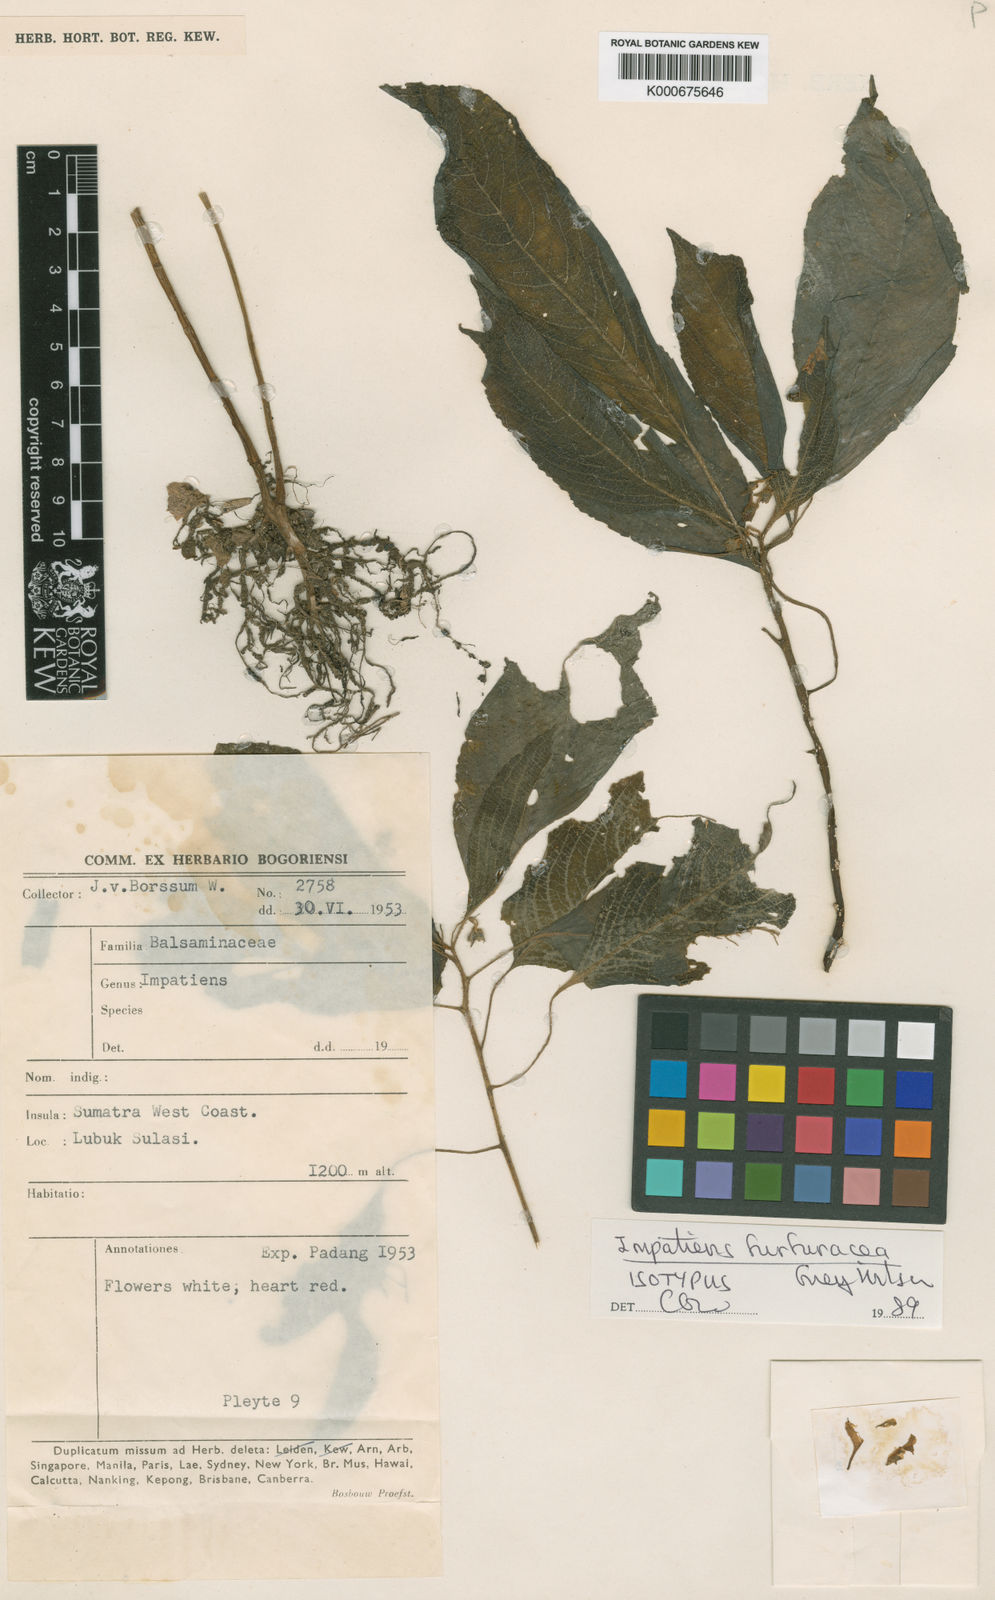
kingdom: Plantae
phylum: Tracheophyta
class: Magnoliopsida
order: Ericales
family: Balsaminaceae
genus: Impatiens
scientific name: Impatiens furfuracea
